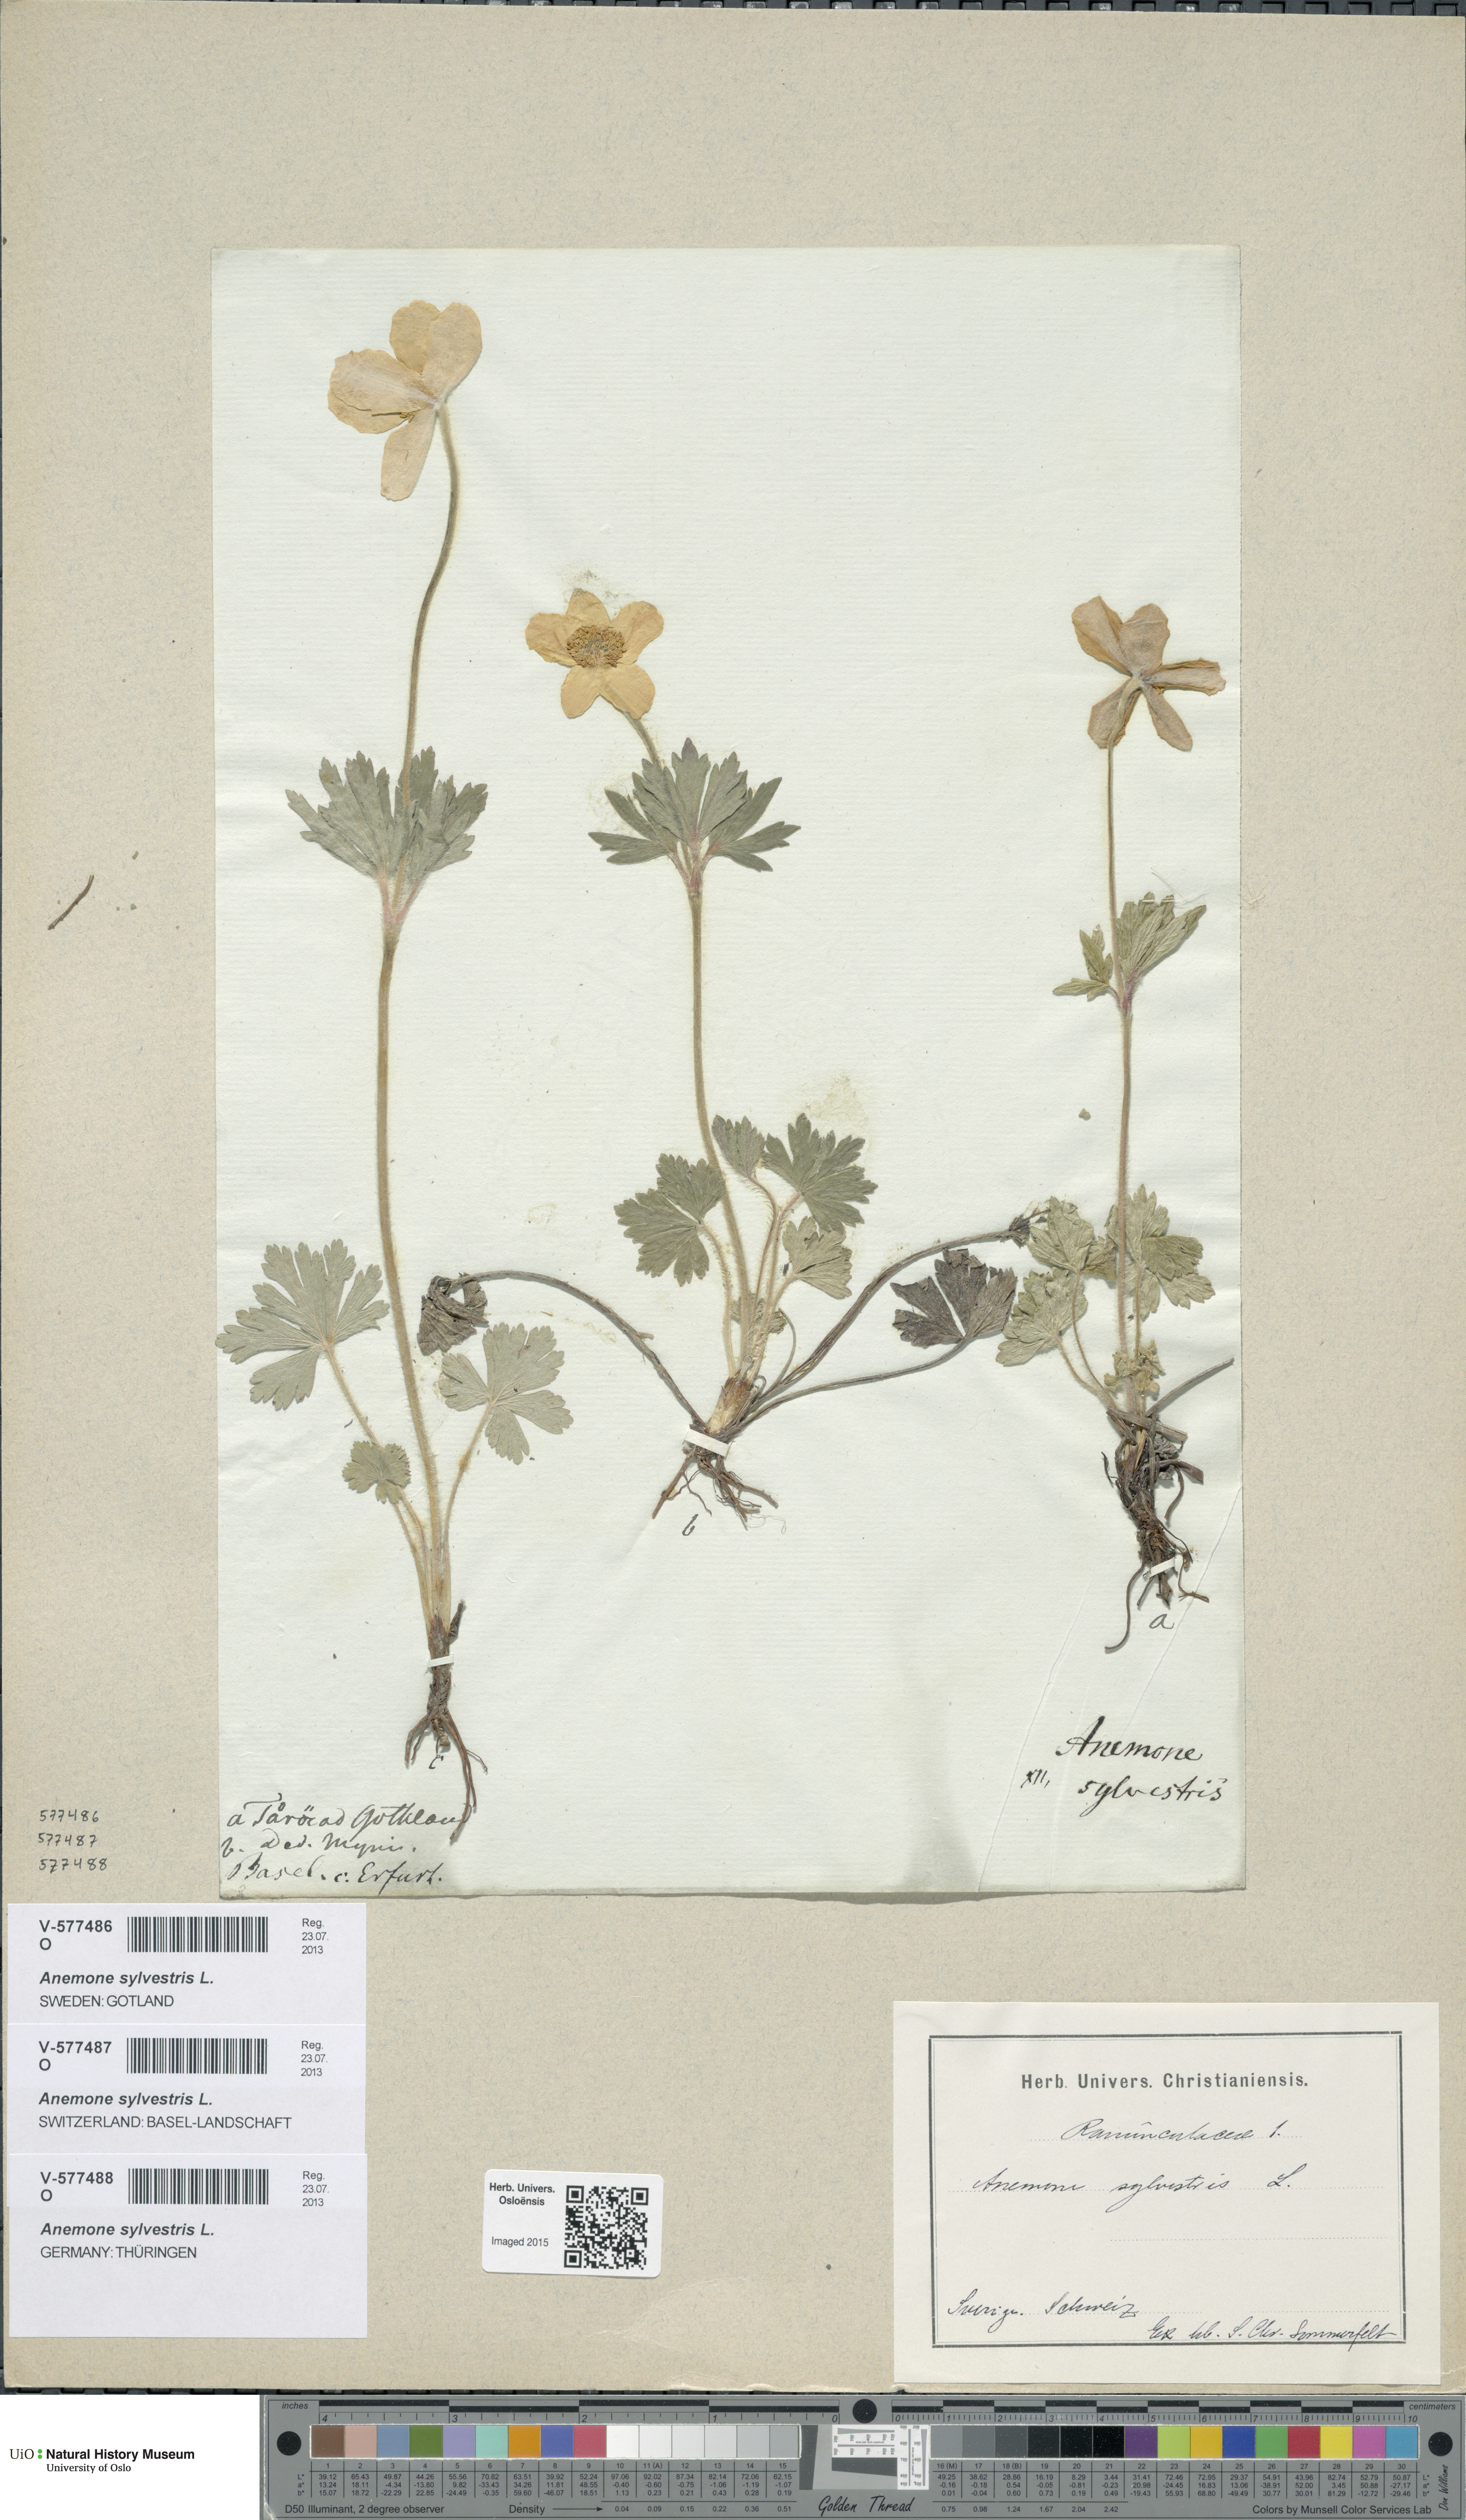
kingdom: Plantae
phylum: Tracheophyta
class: Magnoliopsida
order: Ranunculales
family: Ranunculaceae
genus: Anemone
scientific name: Anemone sylvestris
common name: Snowdrop anemone
